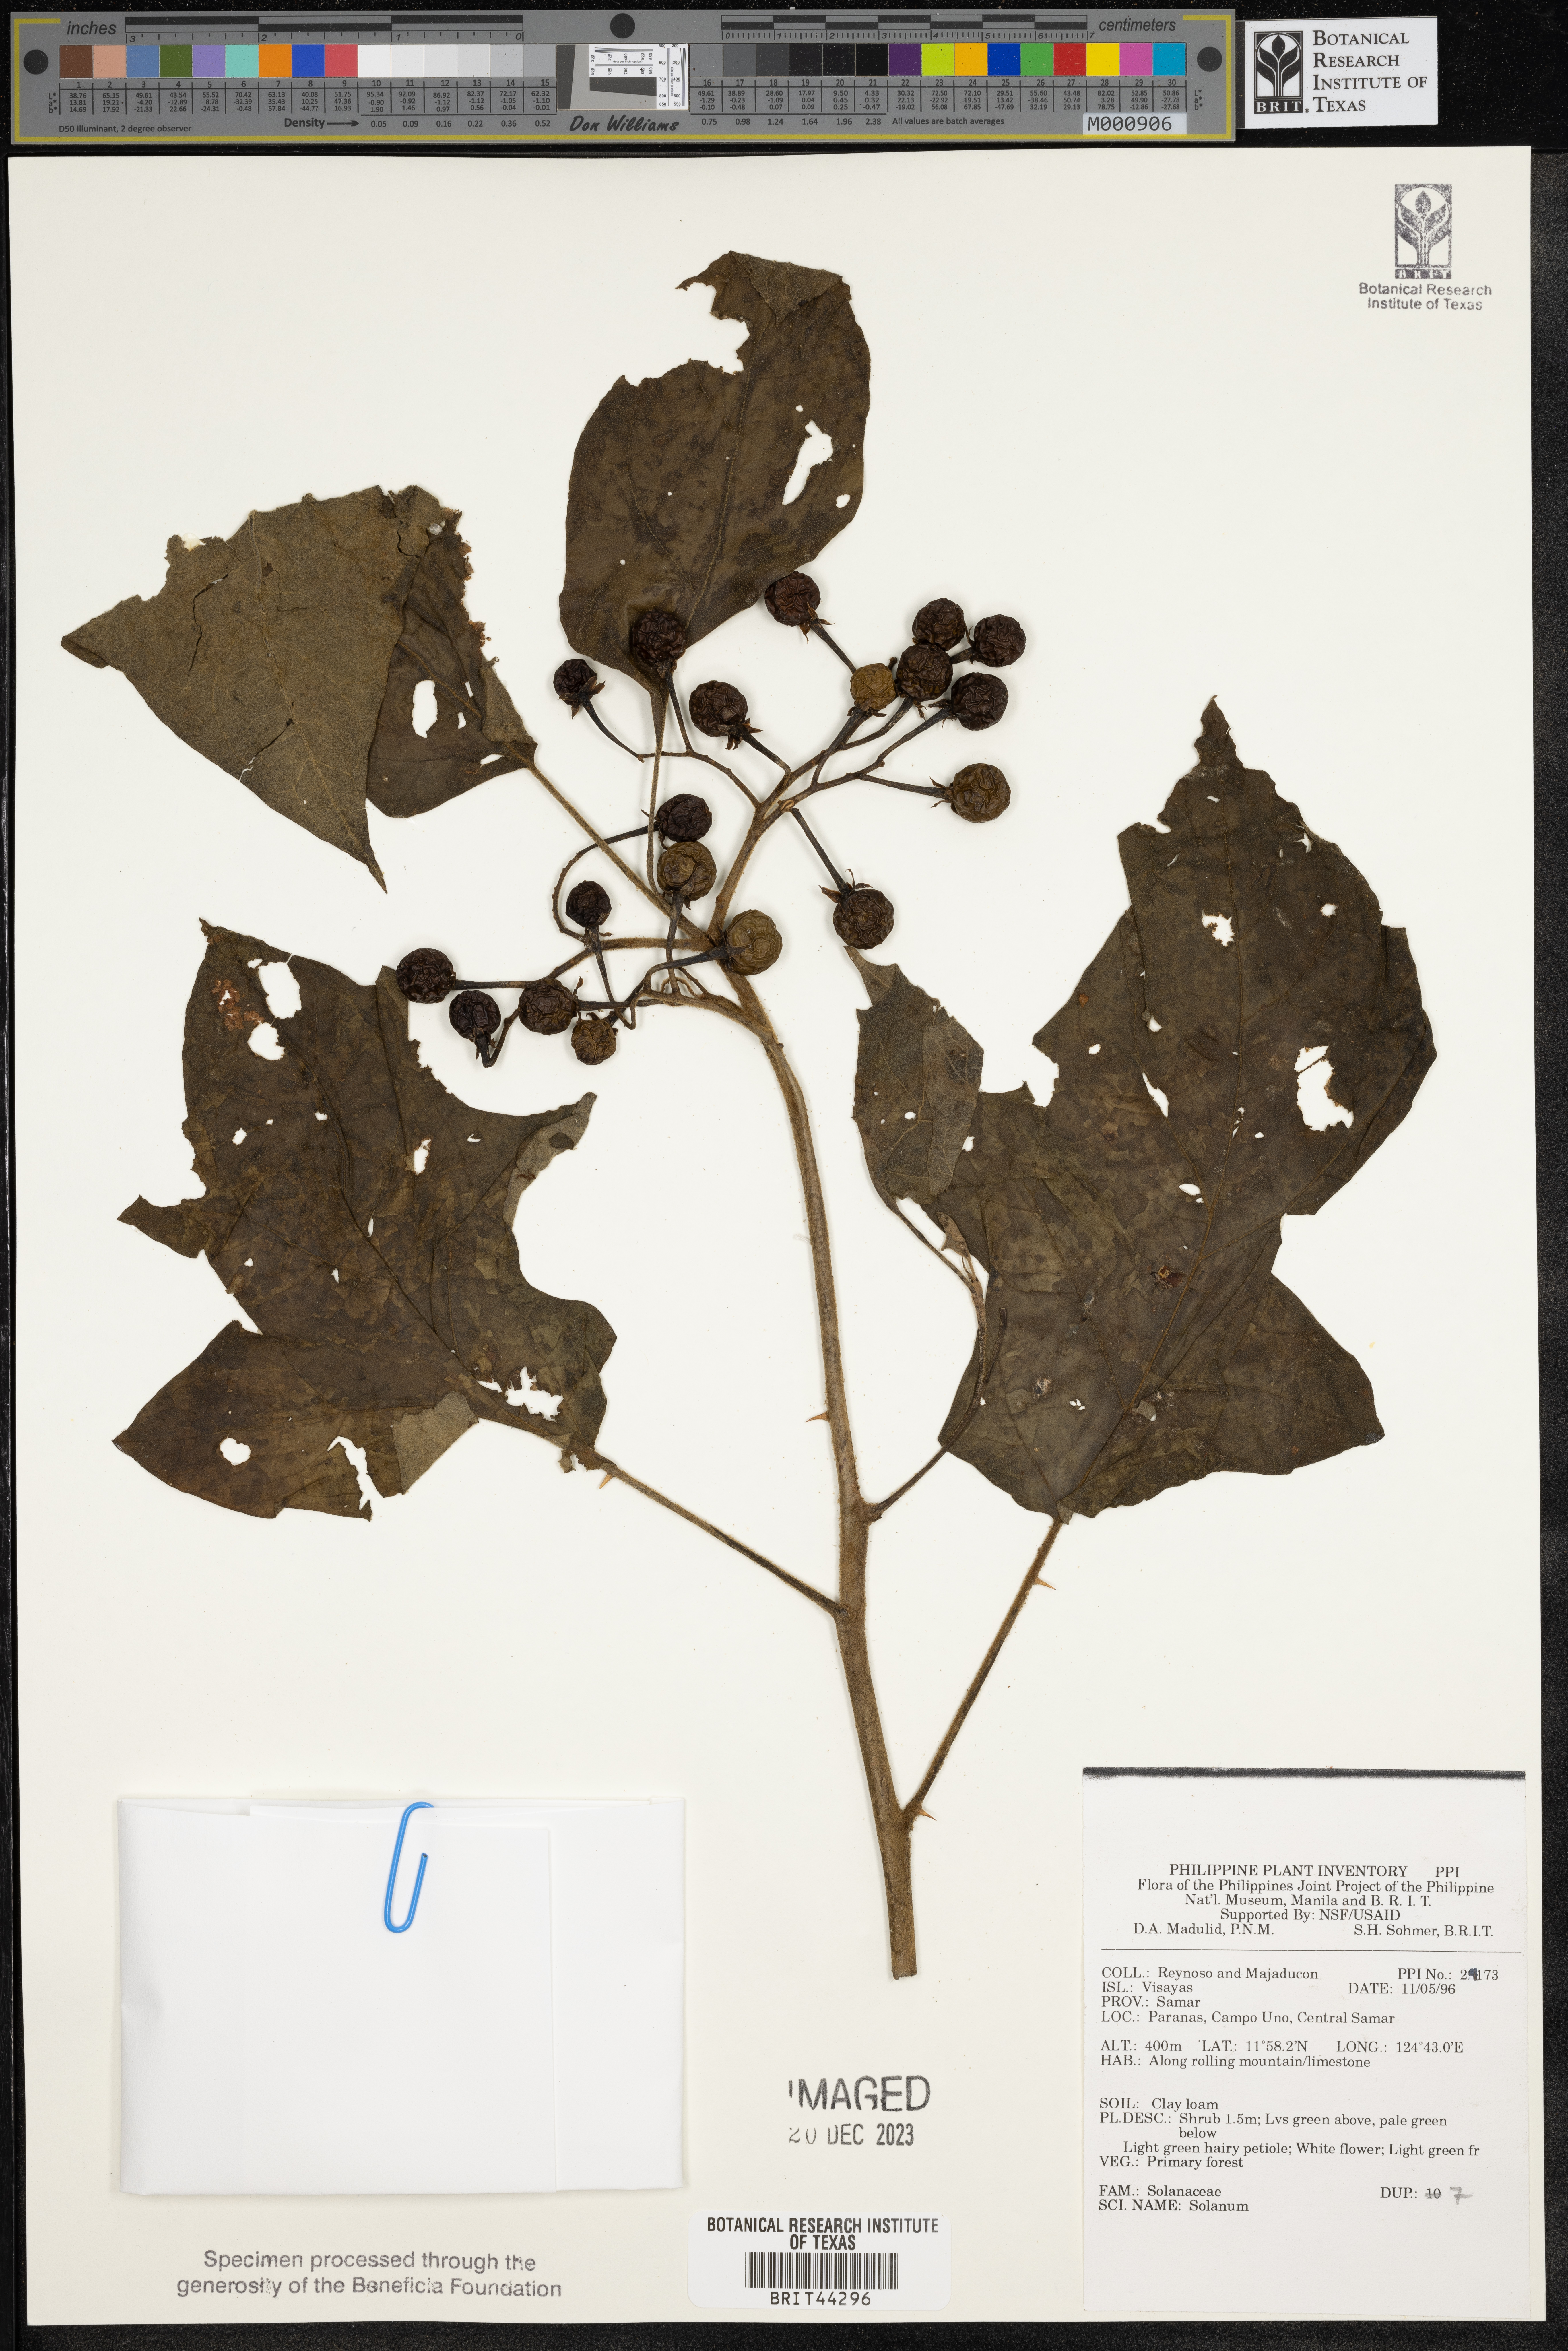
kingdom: Plantae
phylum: Tracheophyta
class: Magnoliopsida
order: Solanales
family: Solanaceae
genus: Solanum
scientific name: Solanum
